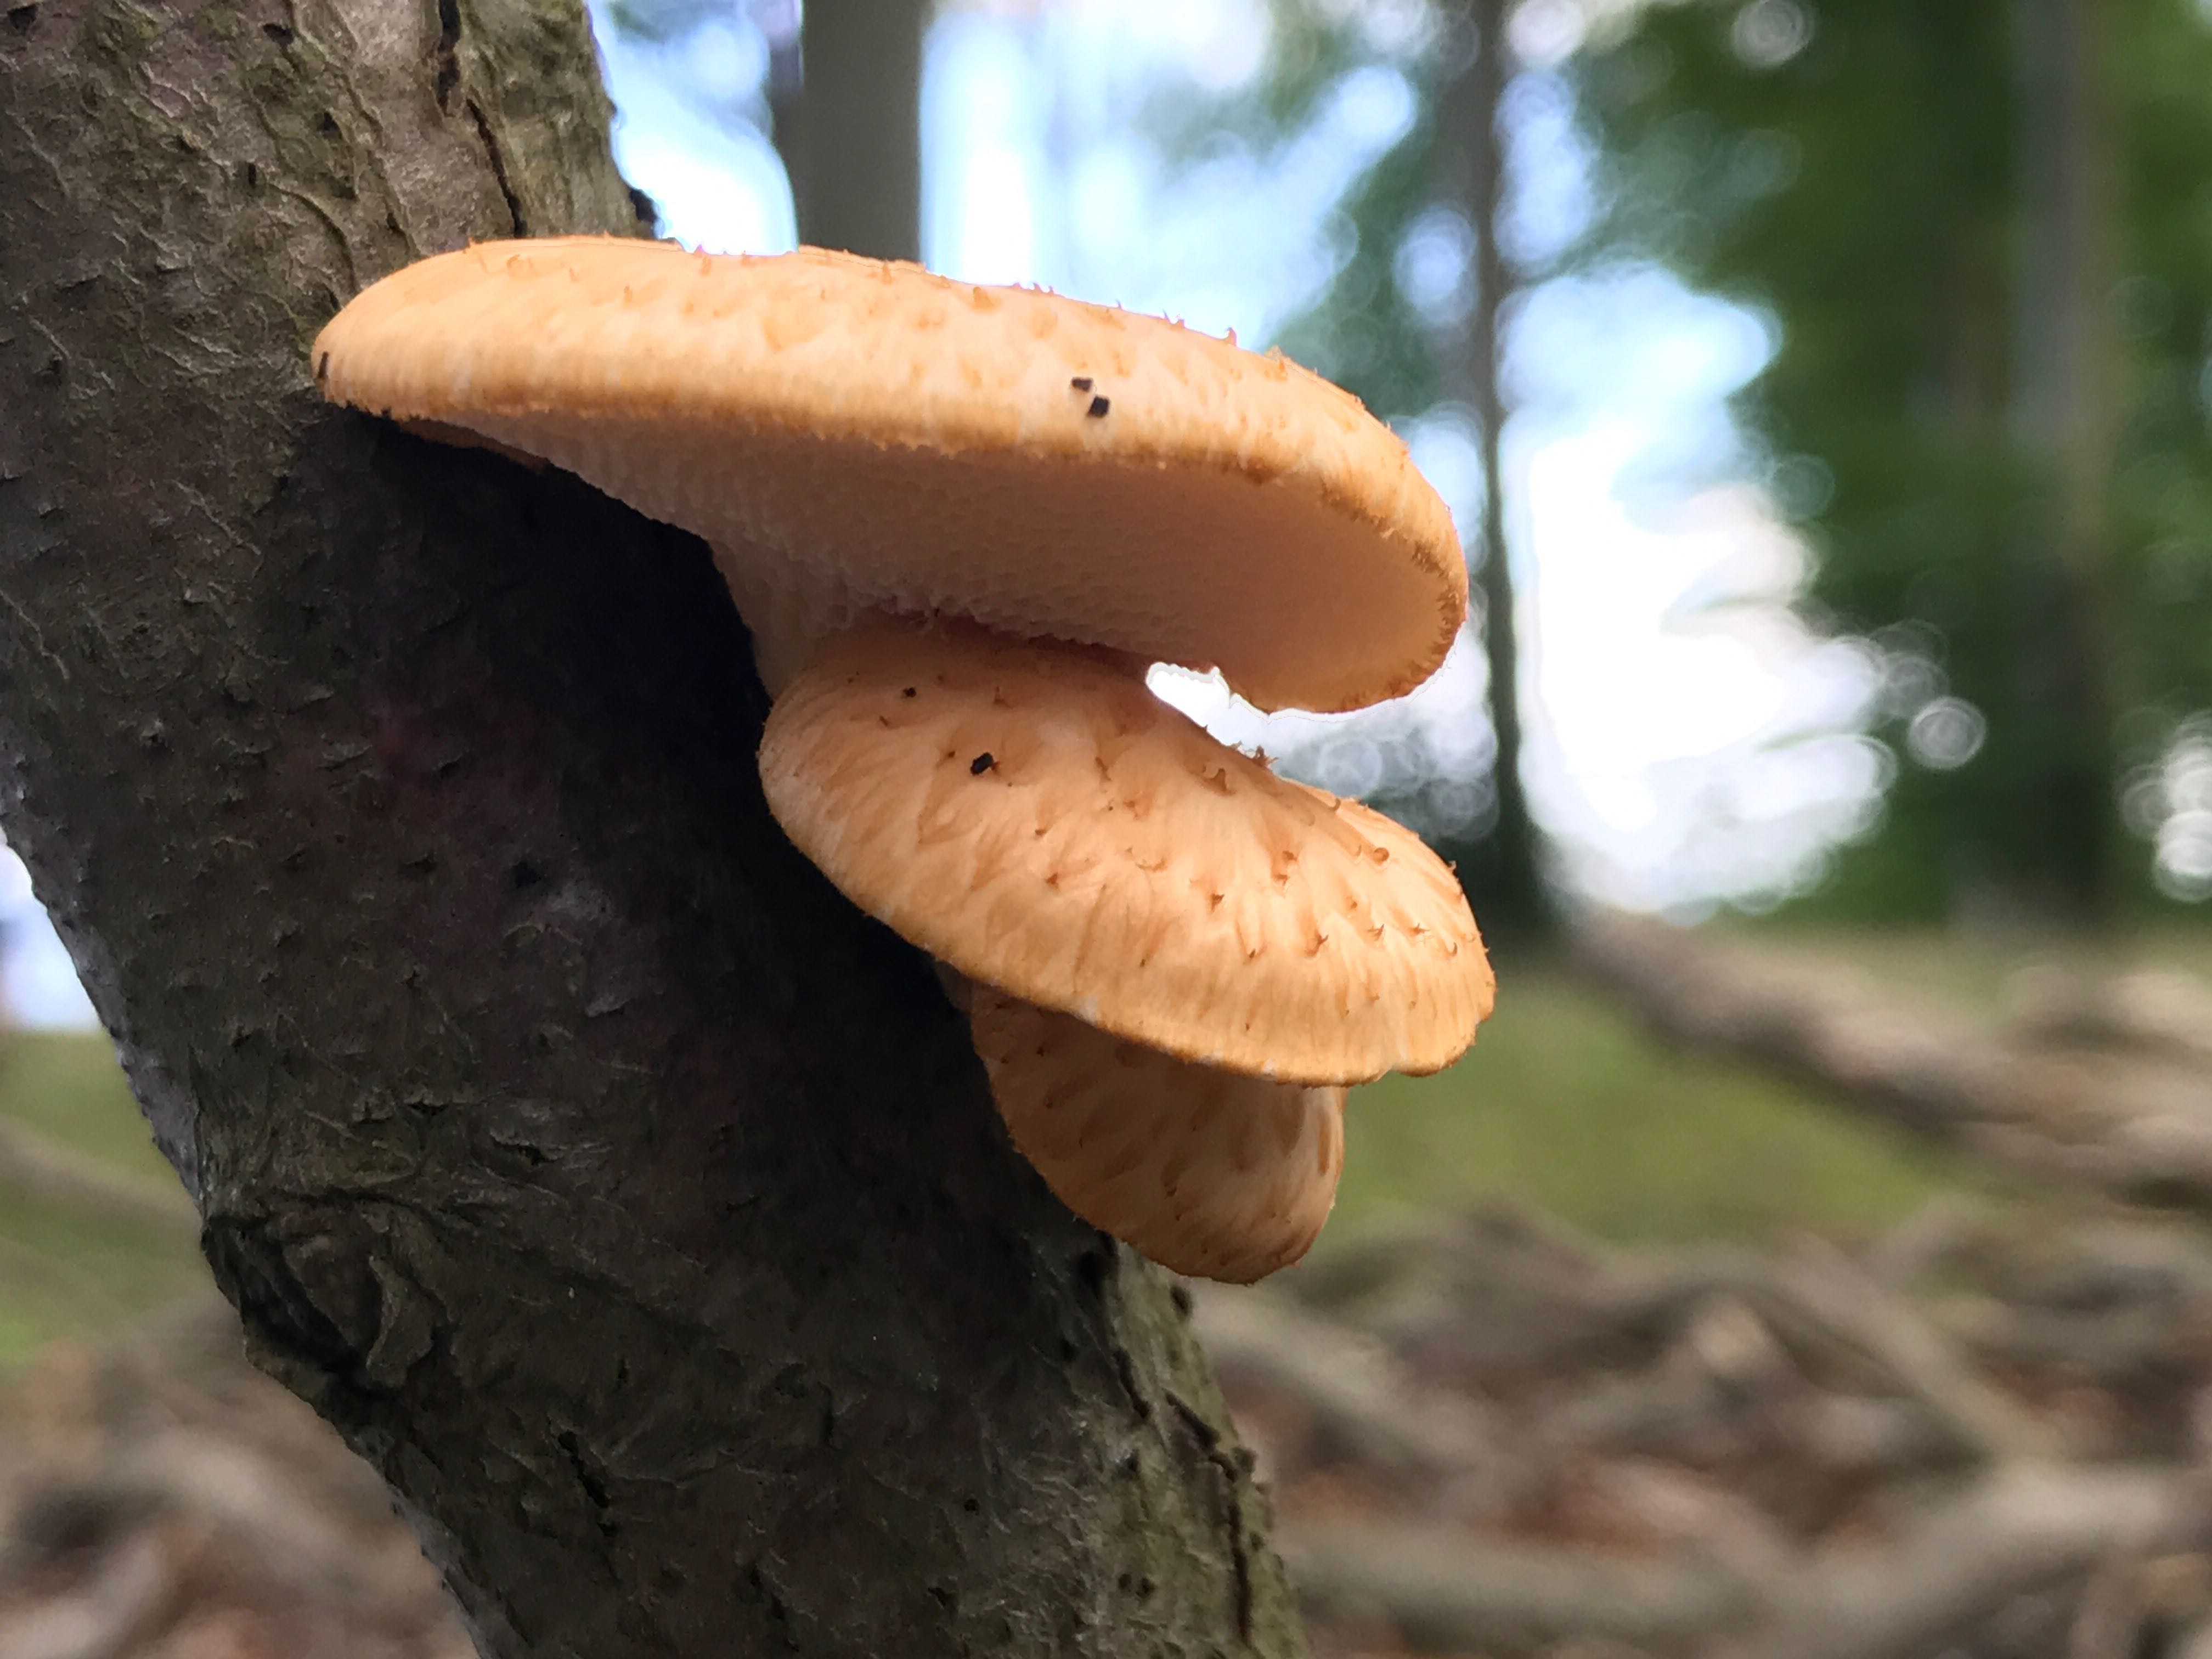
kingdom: Fungi
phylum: Basidiomycota
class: Agaricomycetes
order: Polyporales
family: Polyporaceae
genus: Polyporus
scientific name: Polyporus tuberaster
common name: knoldet stilkporesvamp
